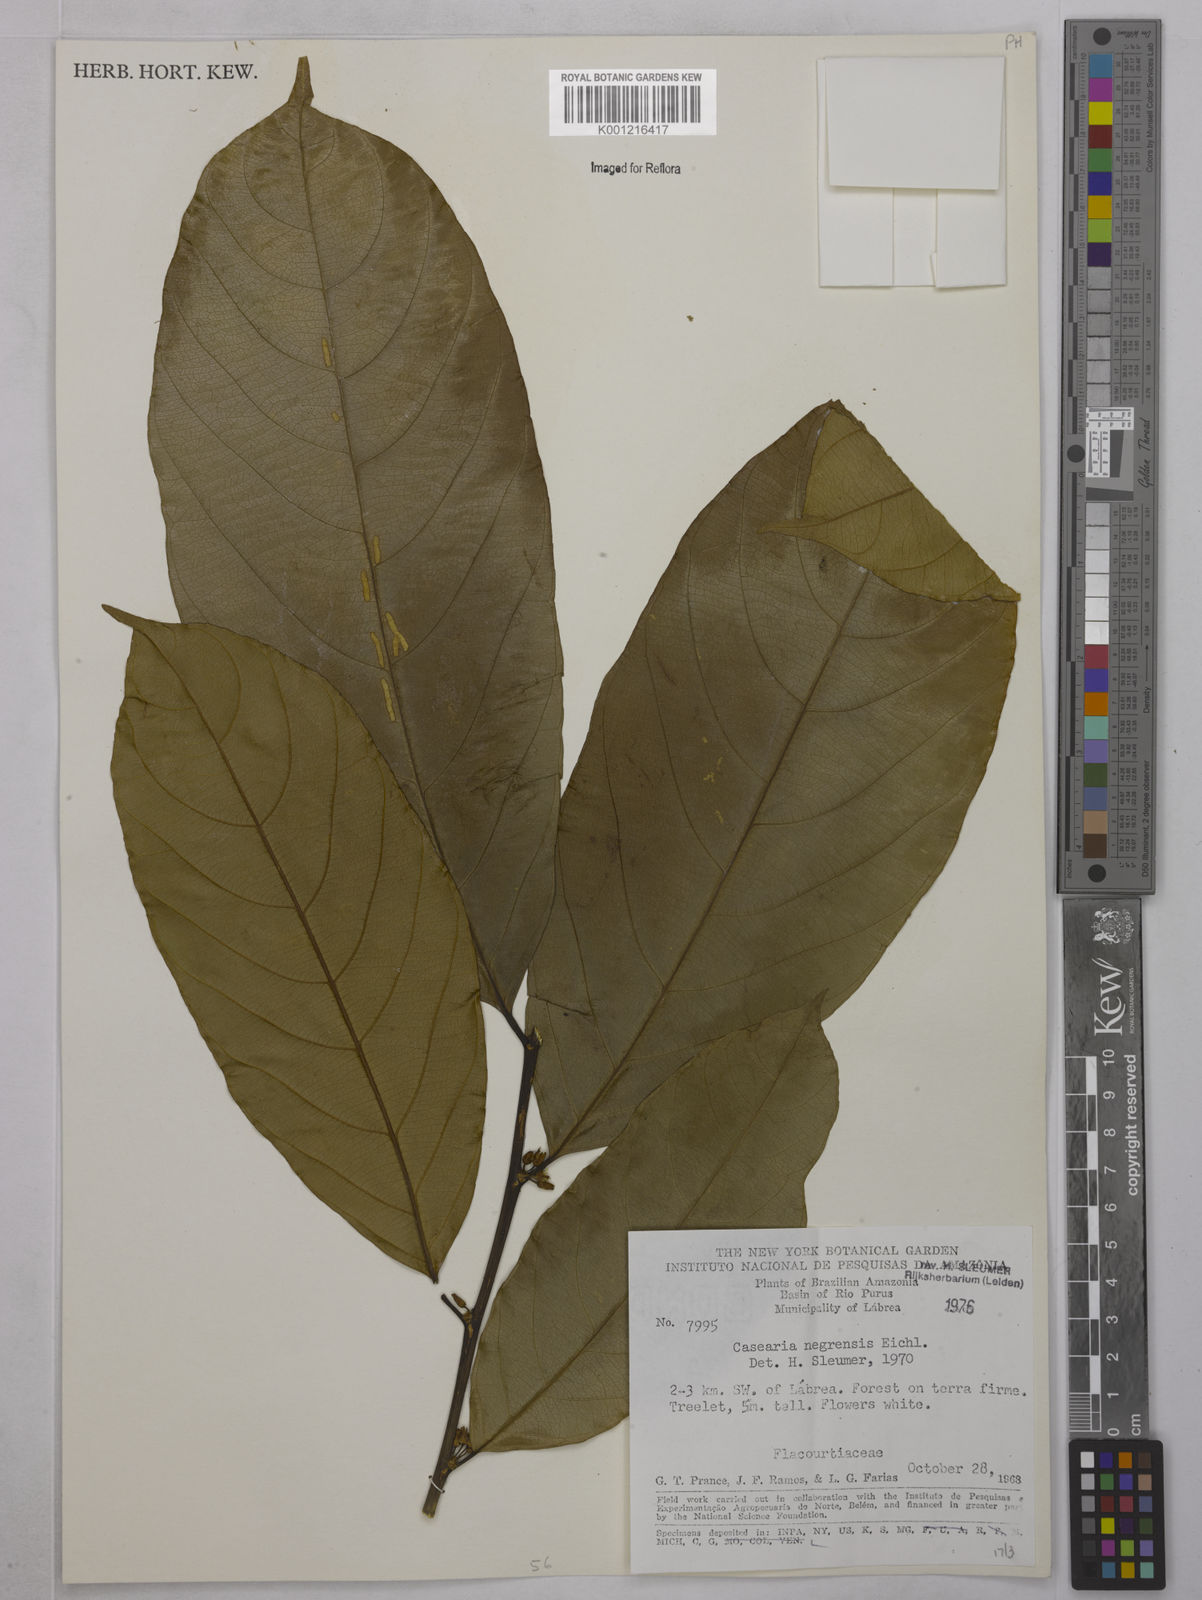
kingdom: Plantae
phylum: Tracheophyta
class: Magnoliopsida
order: Malpighiales
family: Salicaceae
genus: Casearia
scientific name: Casearia negrensis
